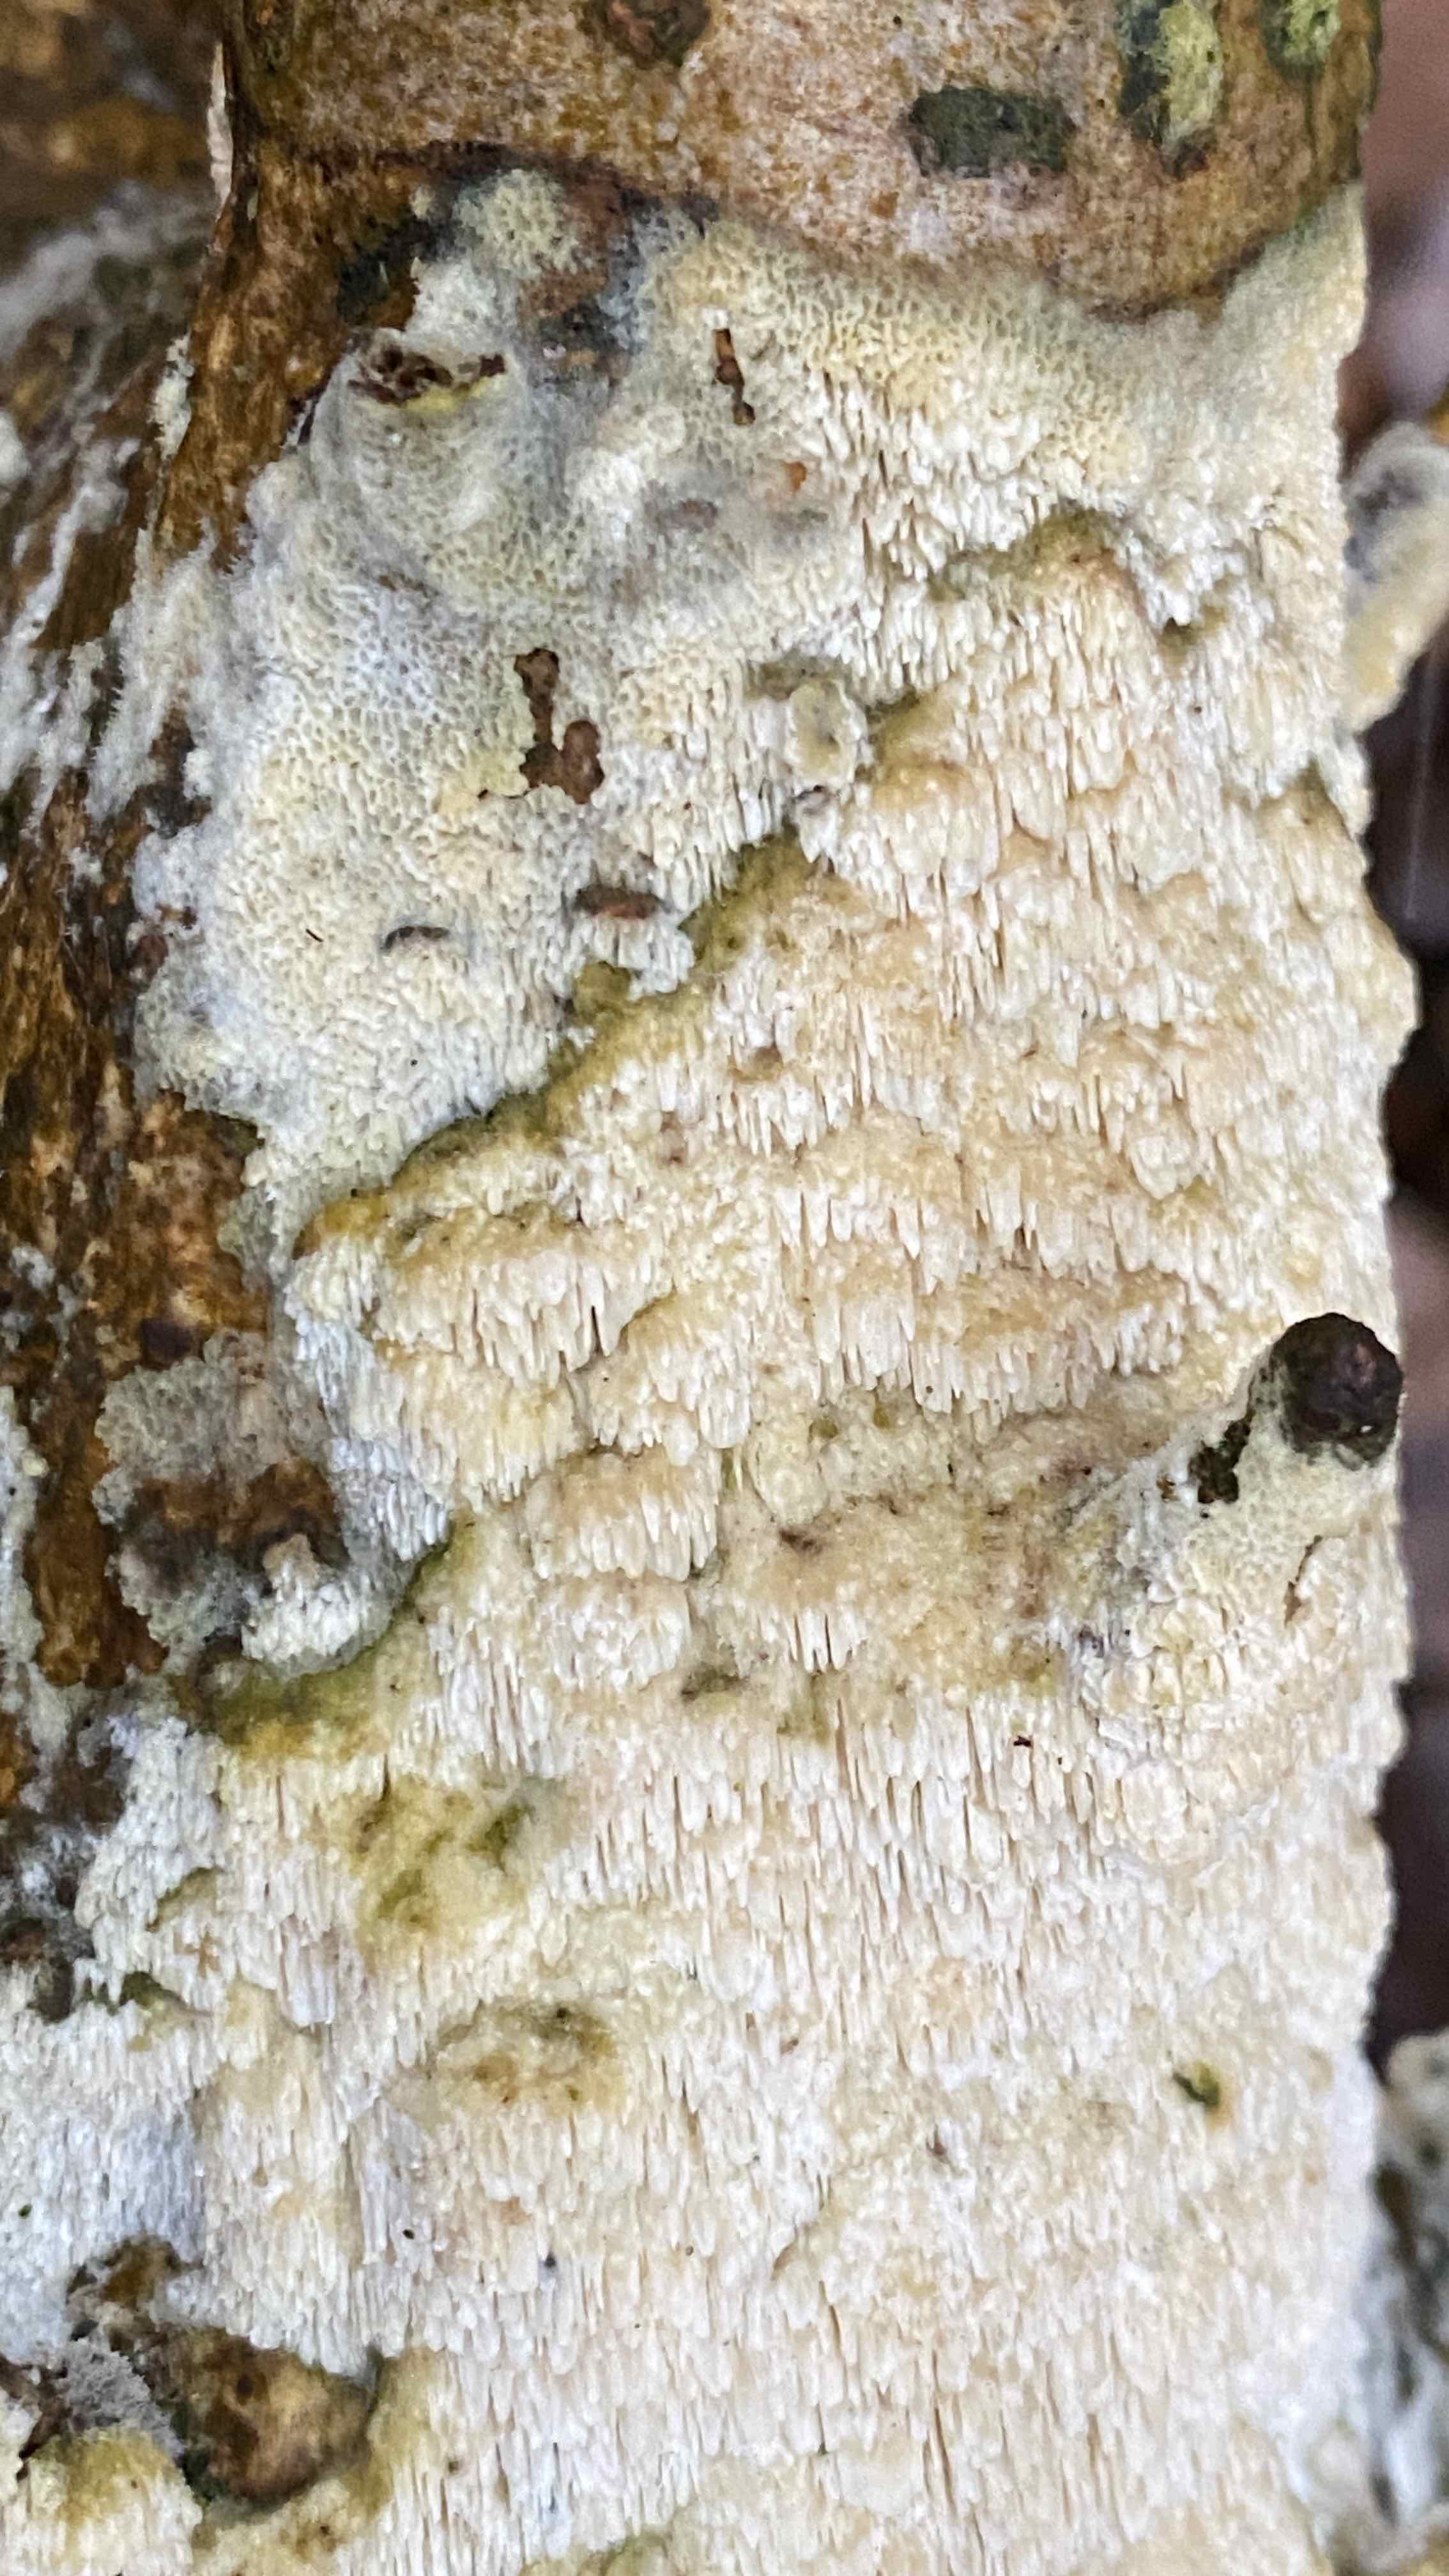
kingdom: Fungi
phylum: Basidiomycota
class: Agaricomycetes
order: Hymenochaetales
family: Schizoporaceae
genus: Schizopora
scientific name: Schizopora paradoxa
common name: hvid tandsvamp
